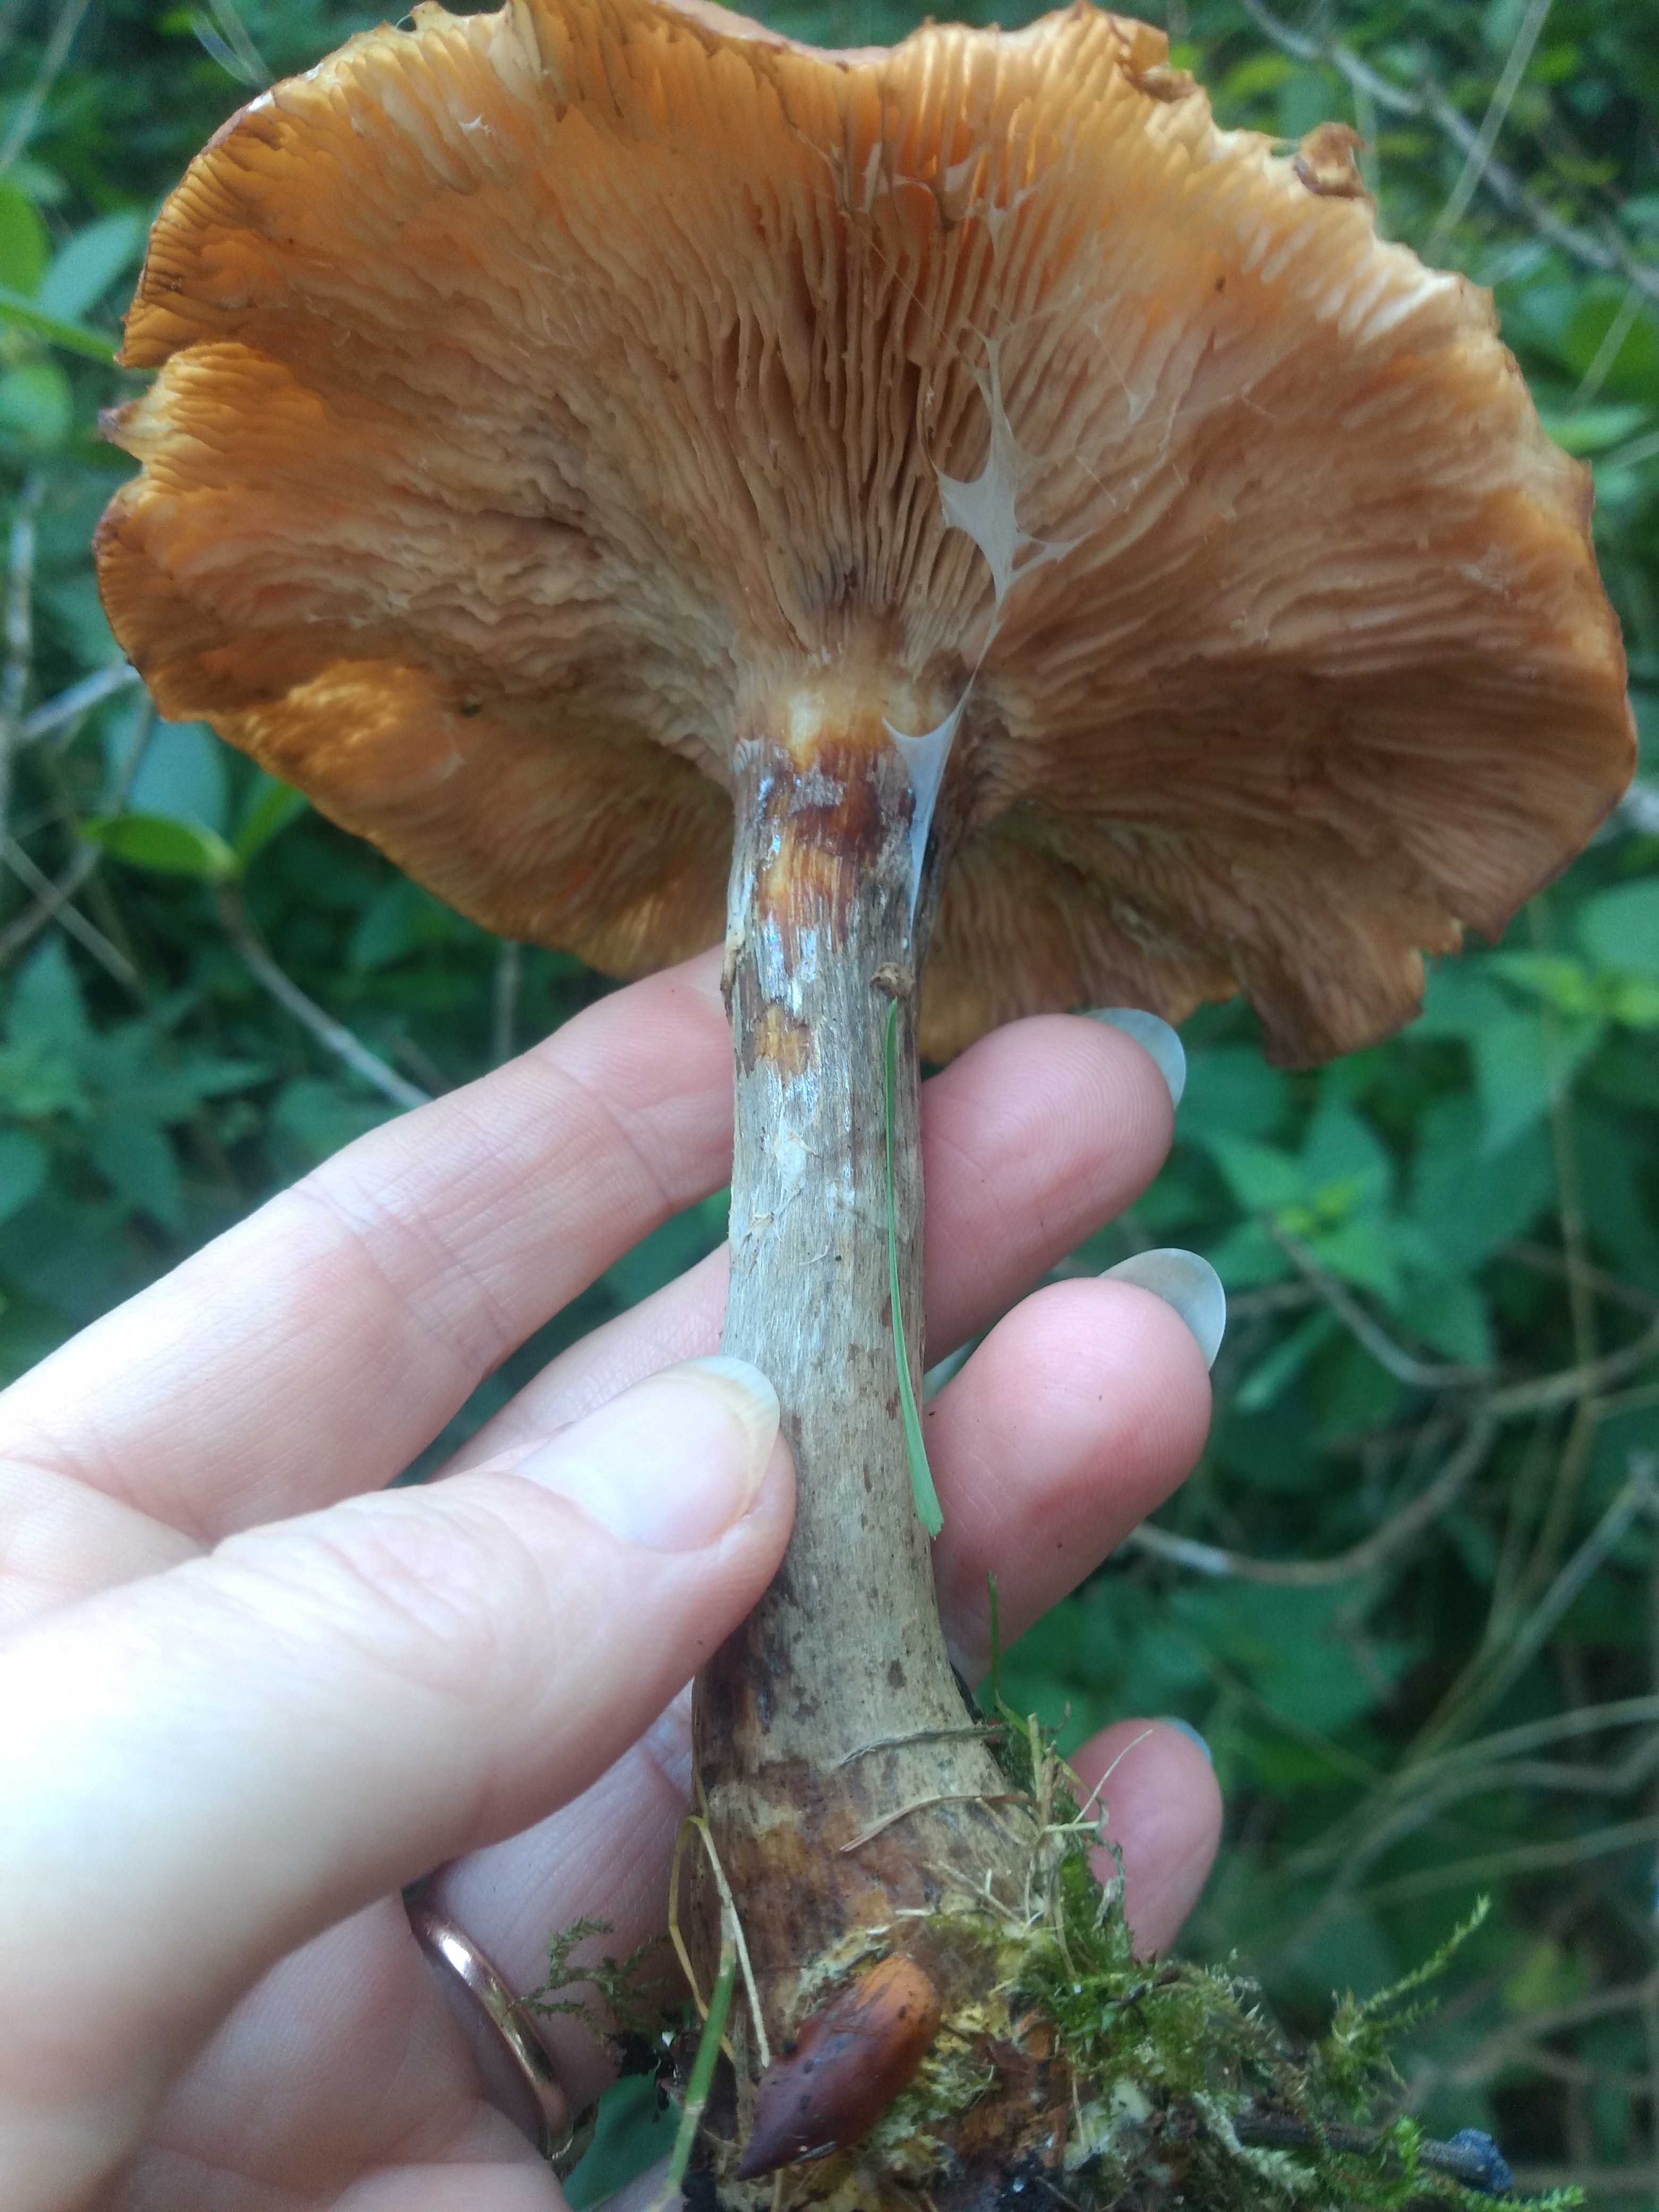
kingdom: Fungi
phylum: Basidiomycota
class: Agaricomycetes
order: Agaricales
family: Physalacriaceae
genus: Armillaria
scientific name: Armillaria
